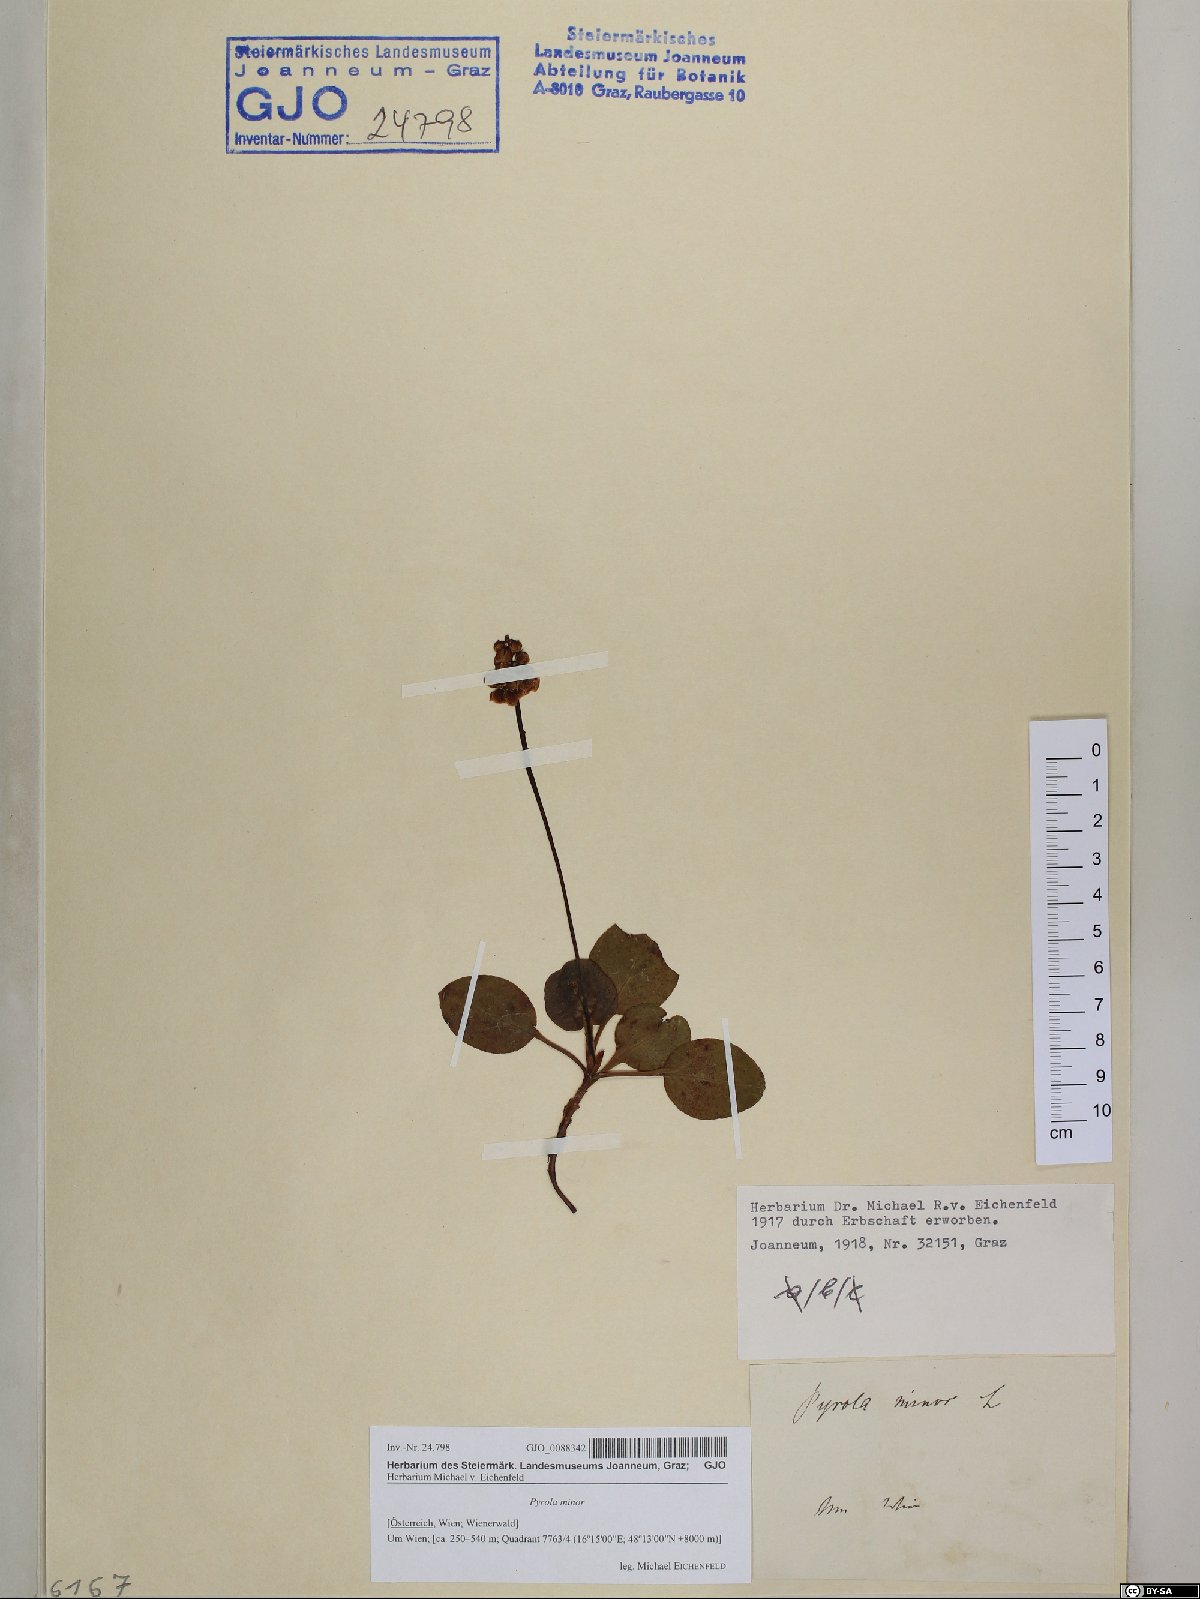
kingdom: Plantae
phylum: Tracheophyta
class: Magnoliopsida
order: Ericales
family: Ericaceae
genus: Pyrola
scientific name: Pyrola minor
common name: Common wintergreen
